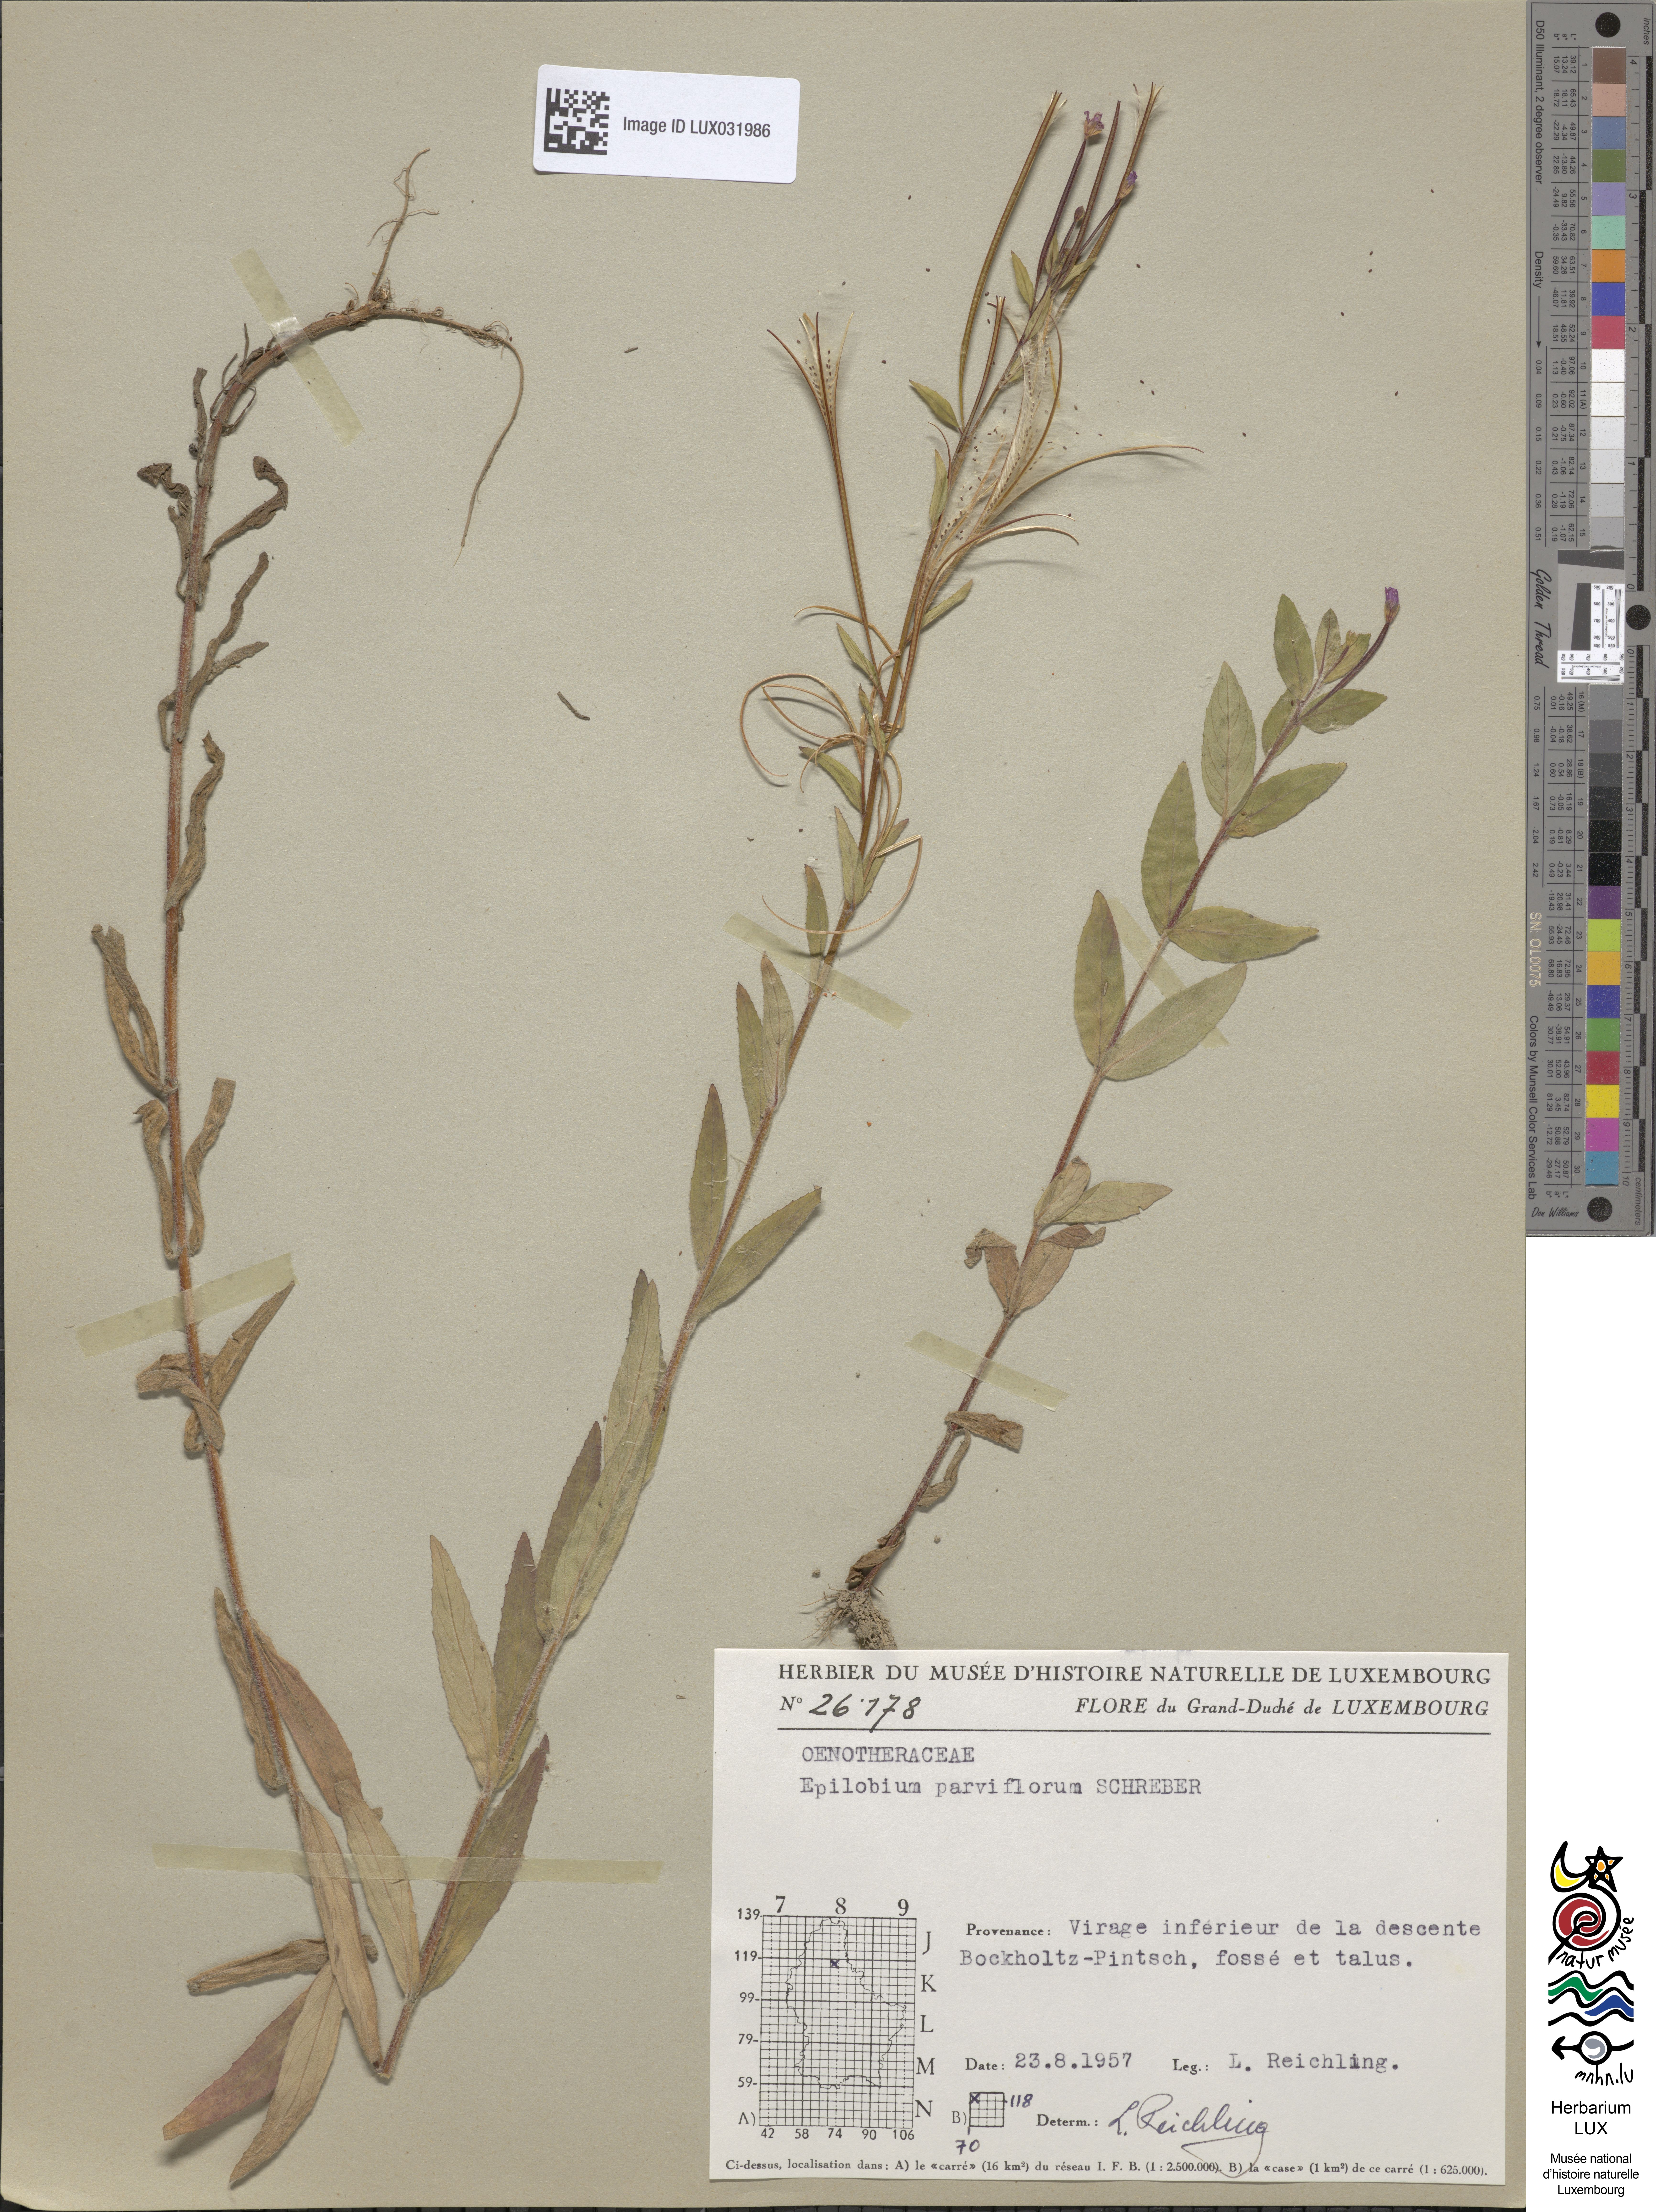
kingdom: Plantae
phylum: Tracheophyta
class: Magnoliopsida
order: Myrtales
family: Onagraceae
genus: Epilobium
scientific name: Epilobium parviflorum
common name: Hoary willowherb
